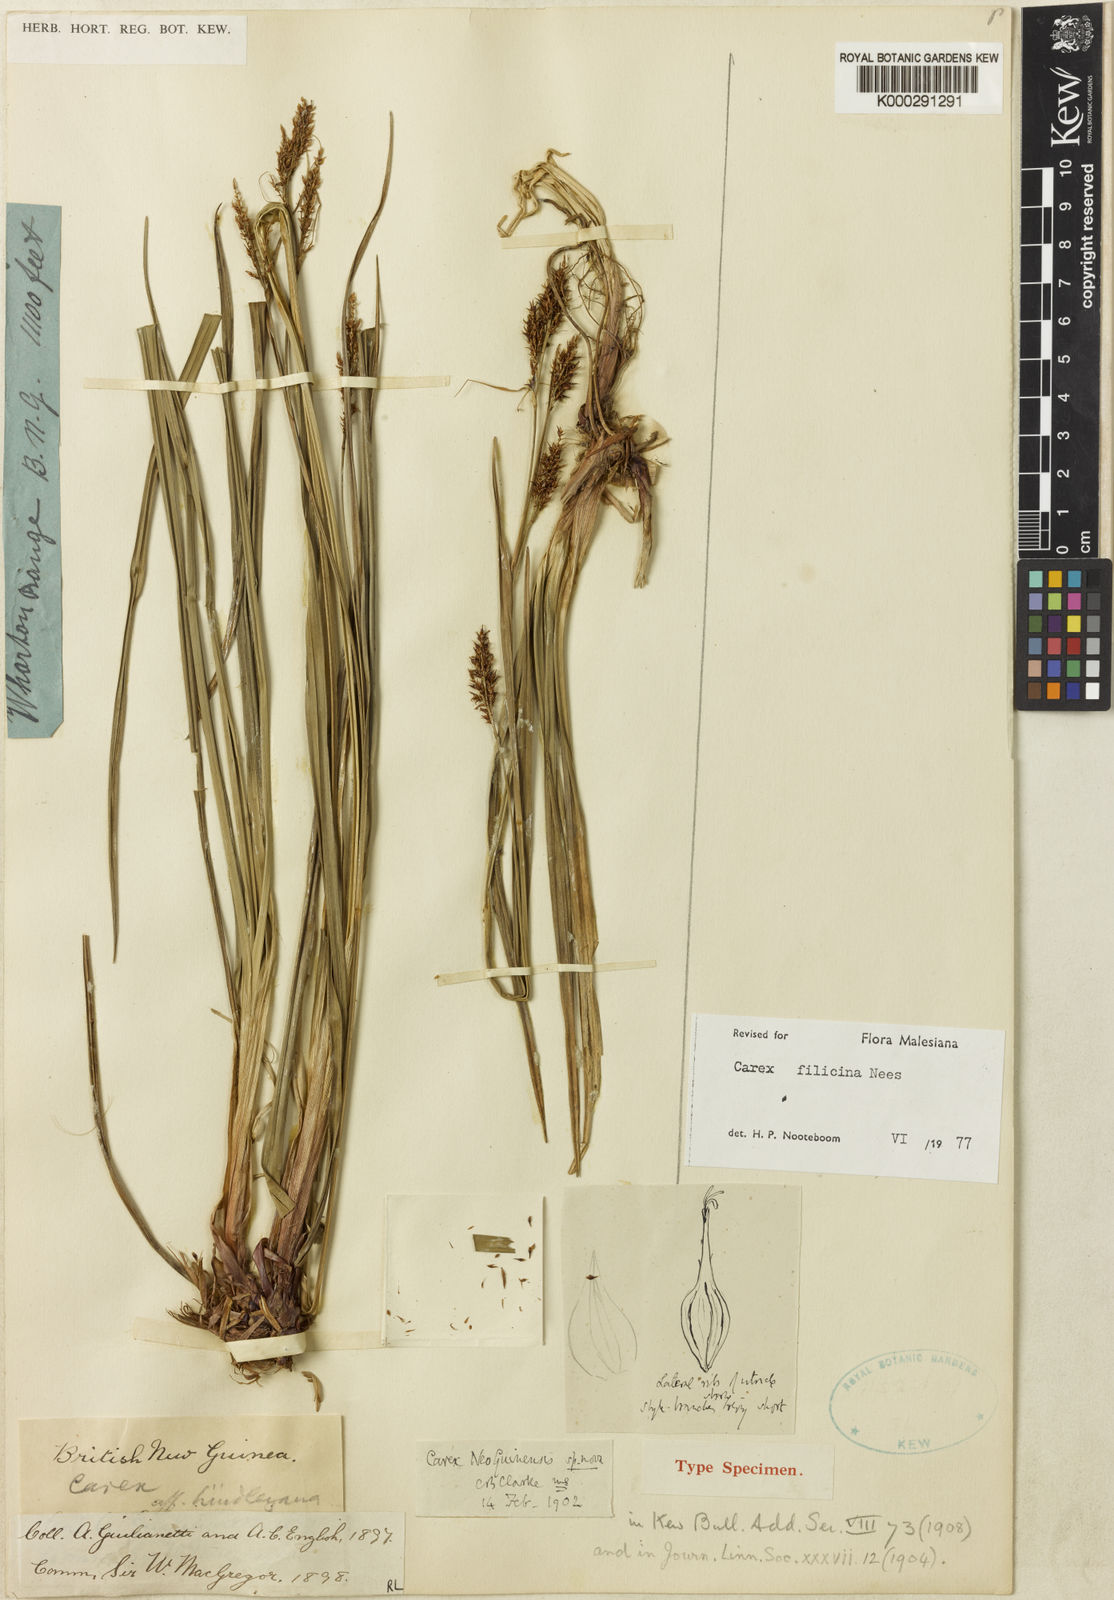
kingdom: Plantae
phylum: Tracheophyta
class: Liliopsida
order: Poales
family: Cyperaceae
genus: Carex
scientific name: Carex filicina
